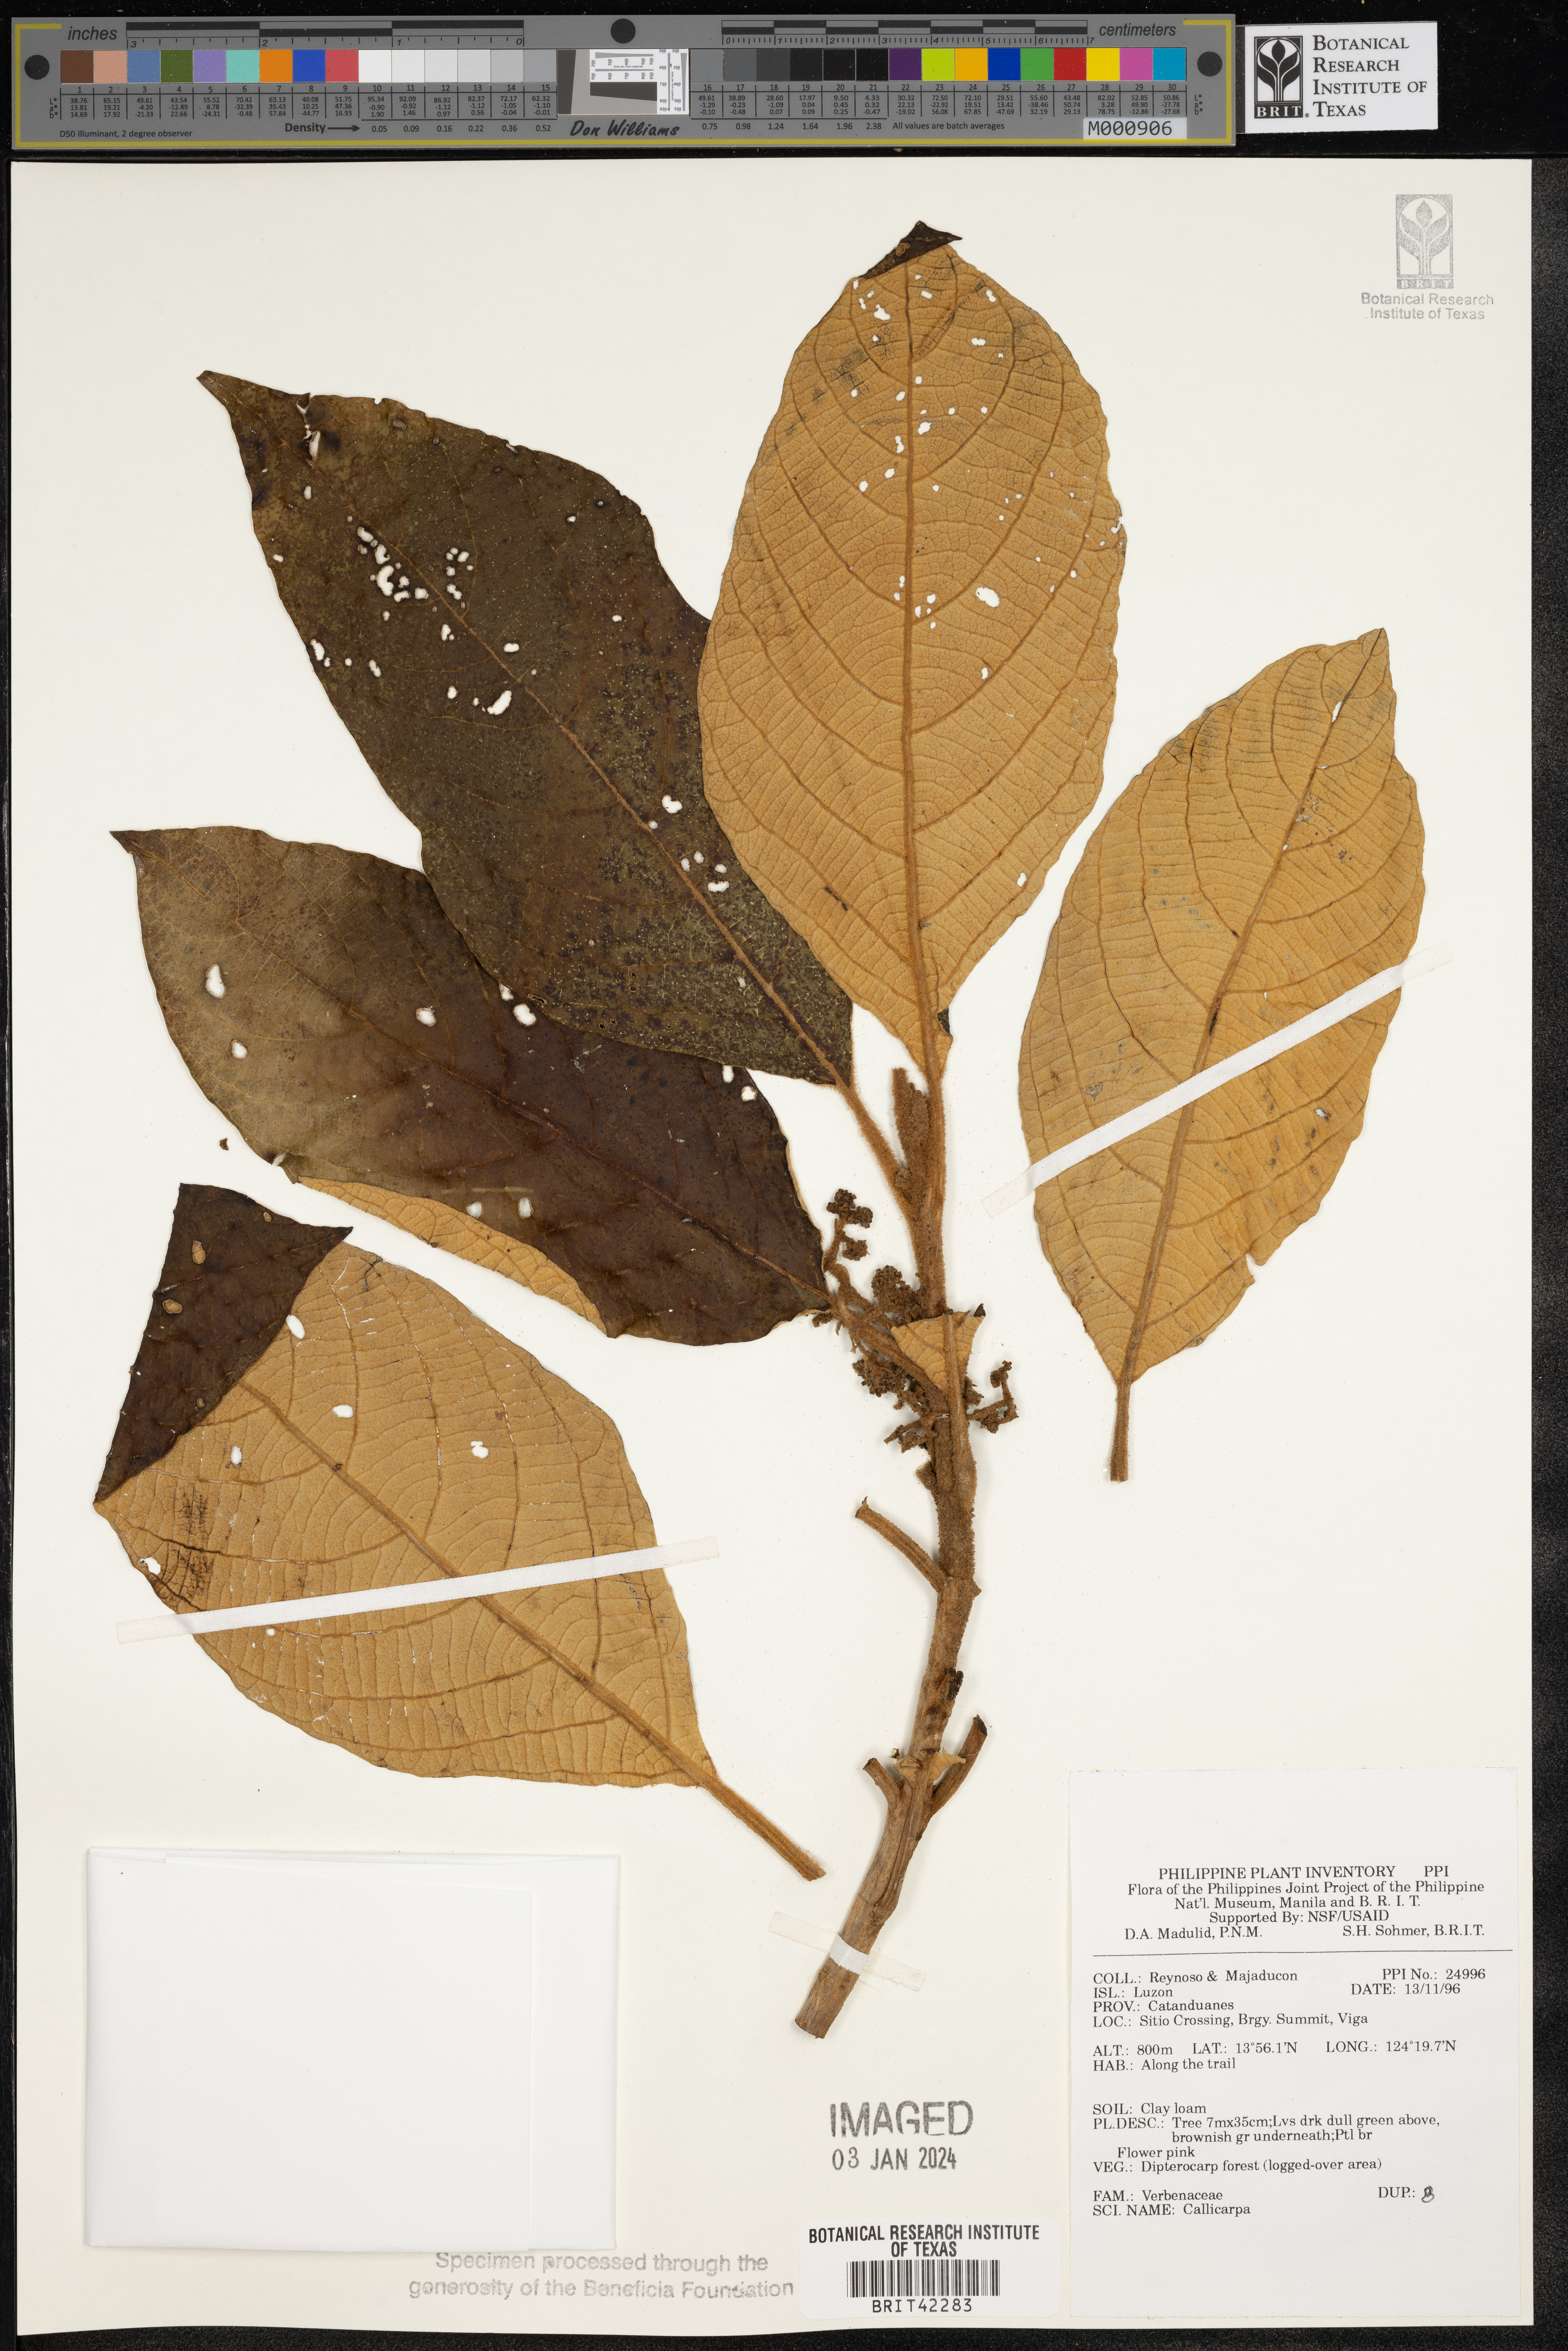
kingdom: Plantae
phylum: Tracheophyta
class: Magnoliopsida
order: Lamiales
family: Lamiaceae
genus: Callicarpa
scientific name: Callicarpa
